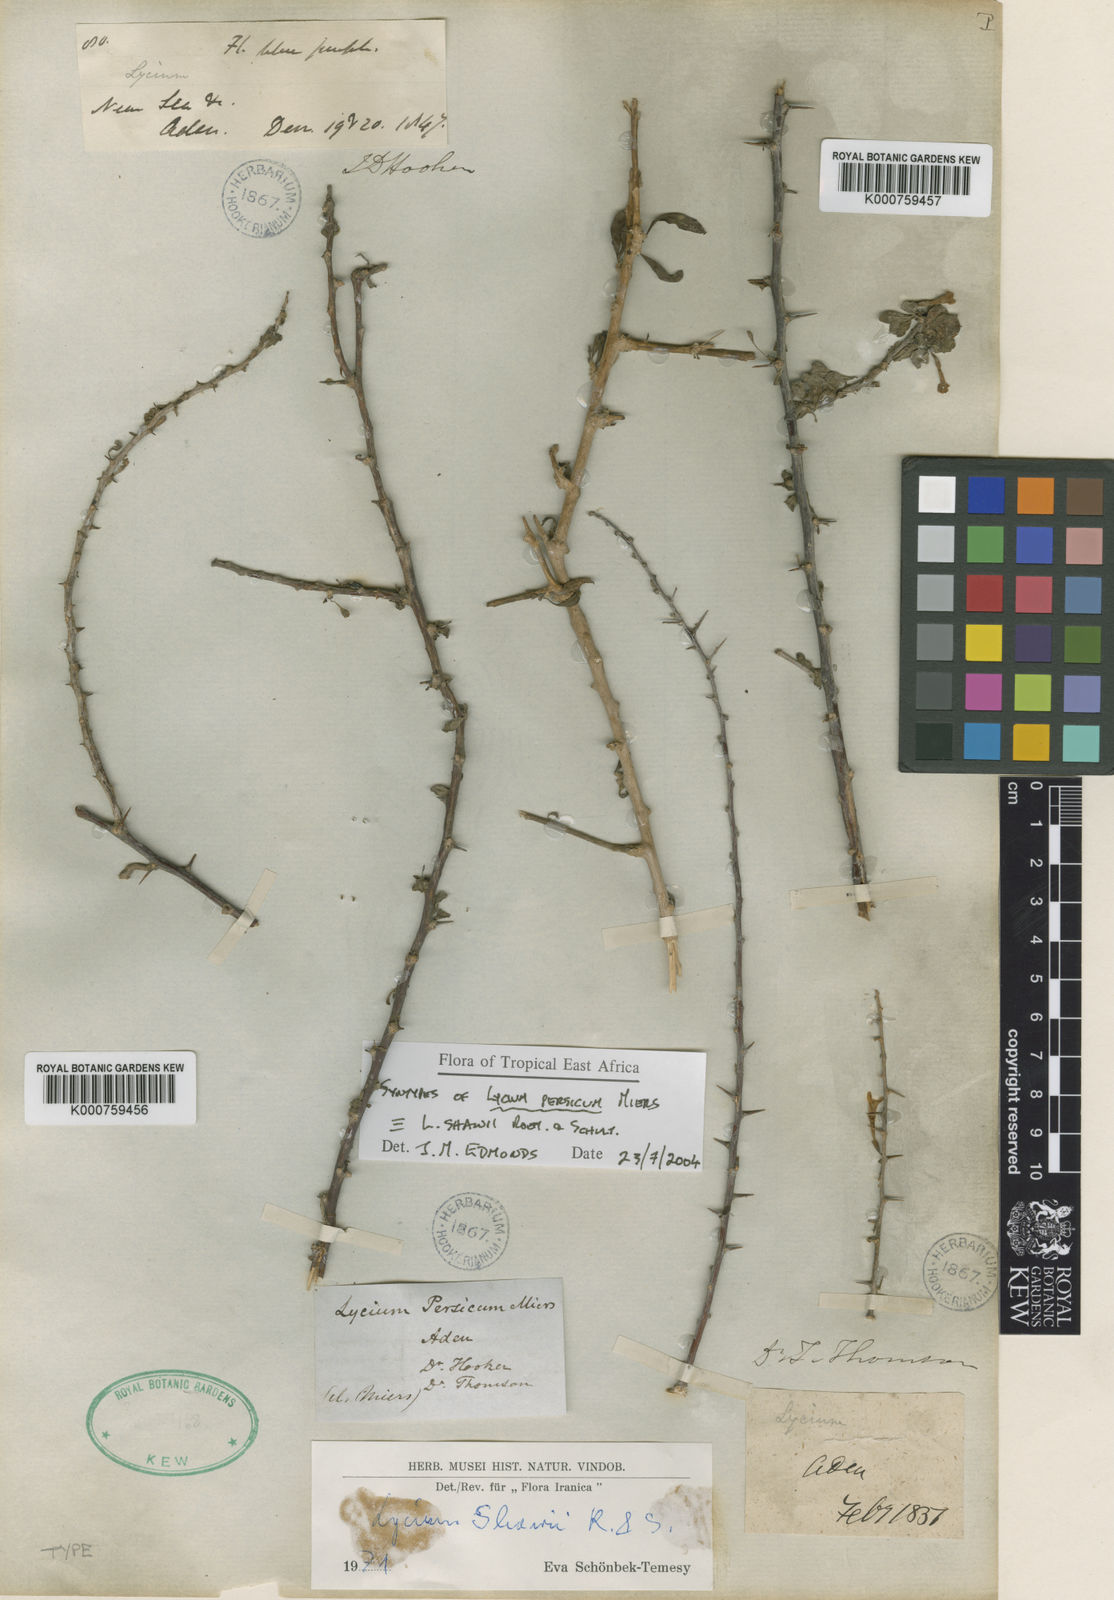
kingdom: Plantae
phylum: Tracheophyta
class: Magnoliopsida
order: Solanales
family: Solanaceae
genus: Lycium
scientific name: Lycium shawii
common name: Boxthorn
